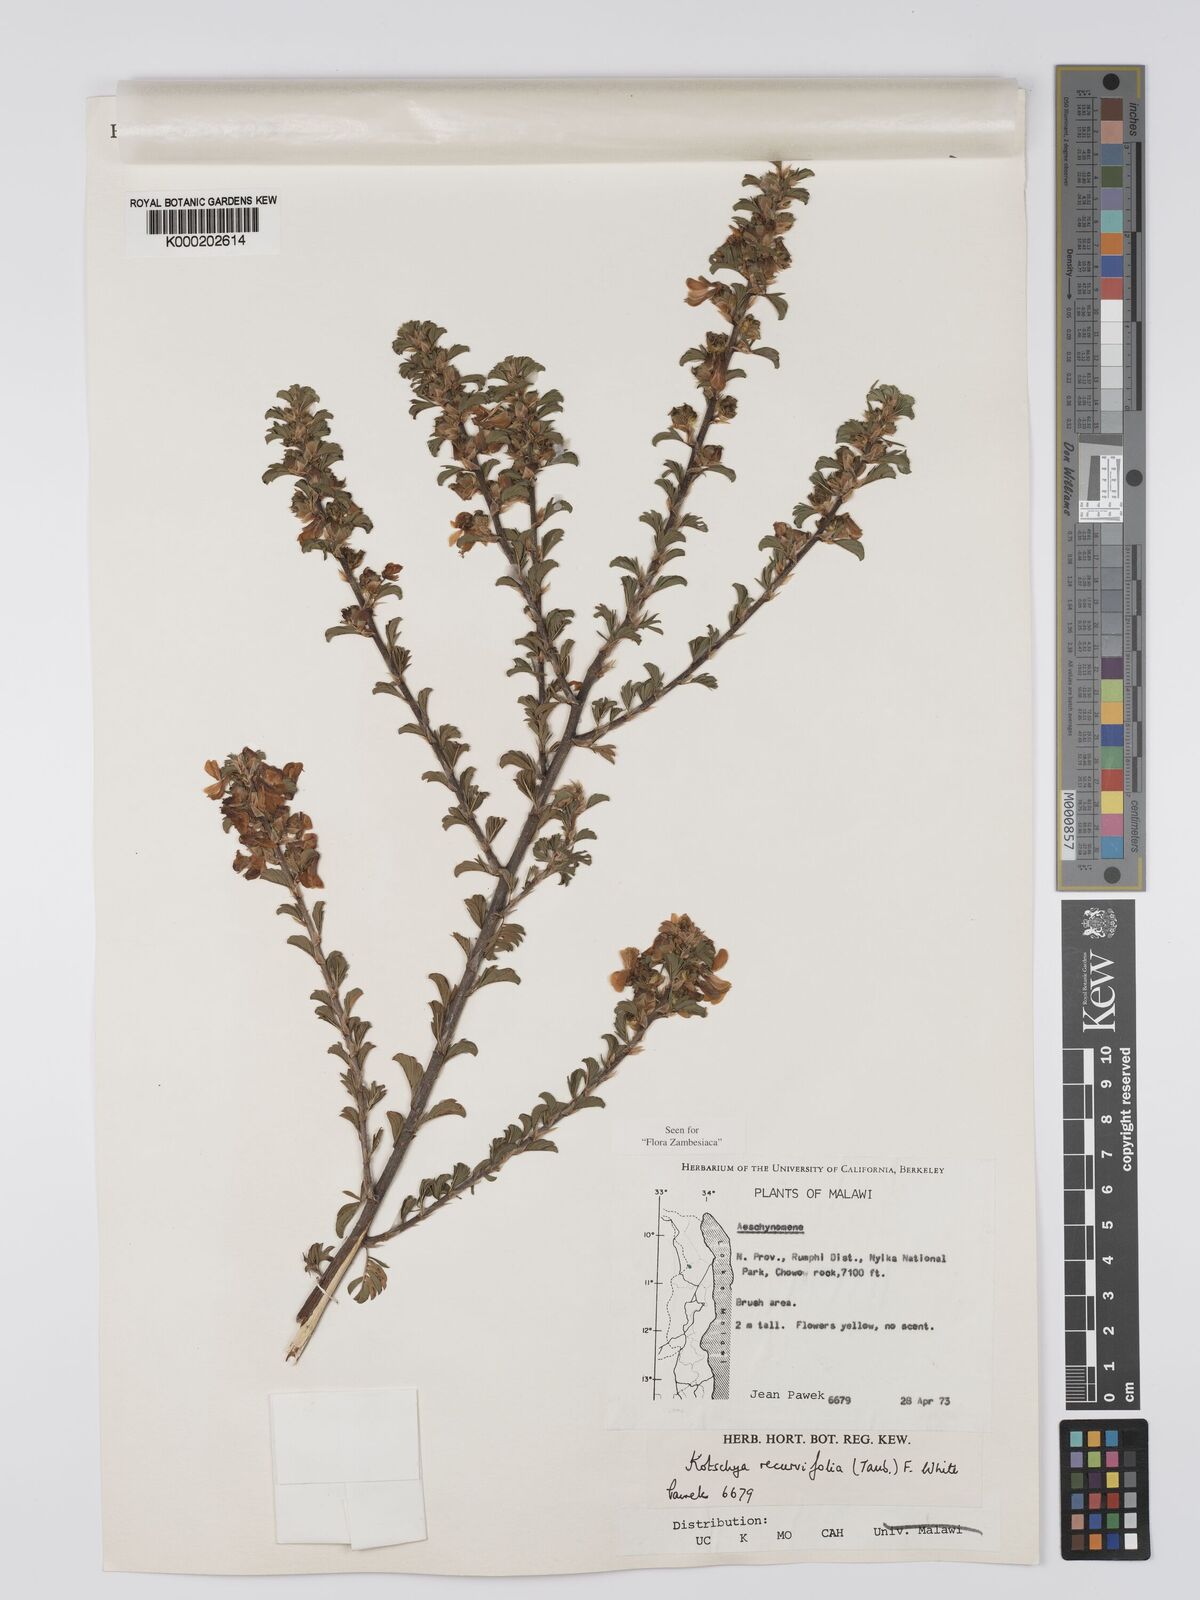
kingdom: Plantae
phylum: Tracheophyta
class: Magnoliopsida
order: Fabales
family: Fabaceae
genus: Kotschya
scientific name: Kotschya recurvifolia
